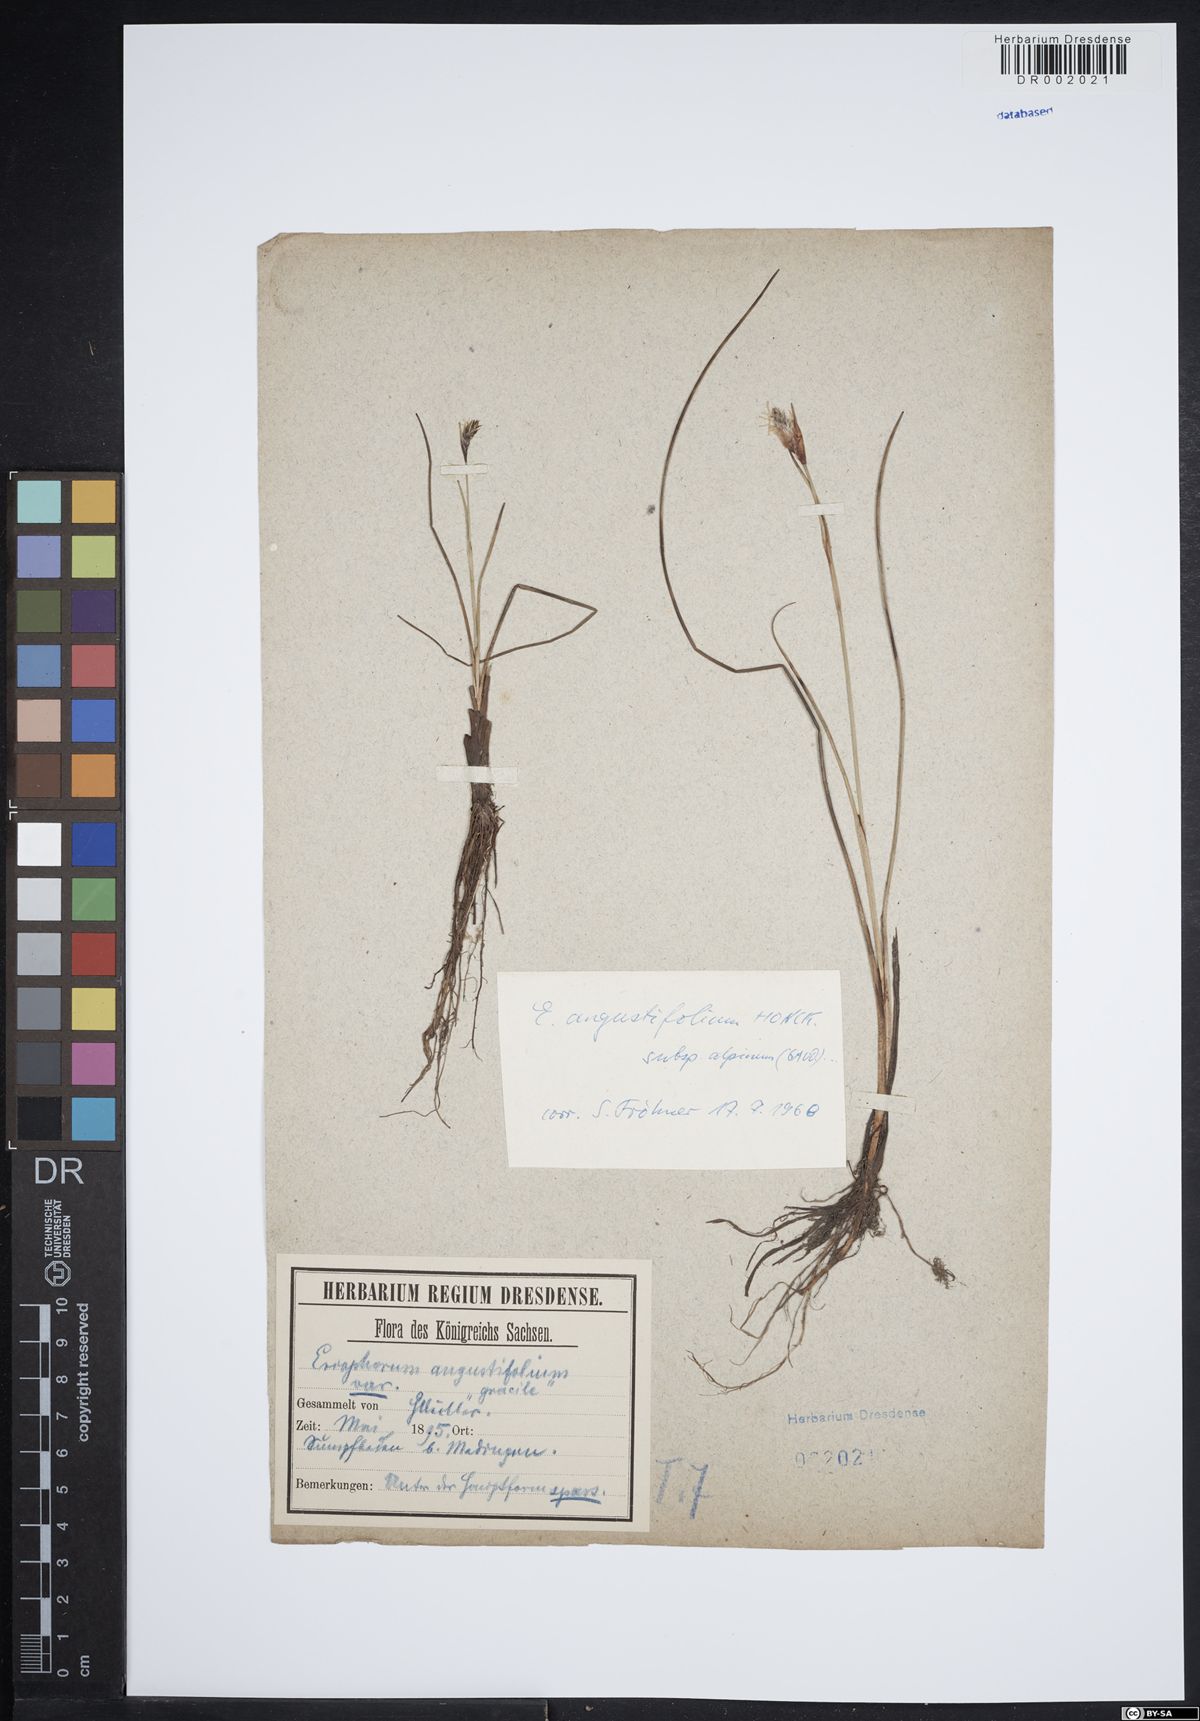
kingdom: Plantae
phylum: Tracheophyta
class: Liliopsida
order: Poales
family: Cyperaceae
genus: Eriophorum
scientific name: Eriophorum gracile
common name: Slender cottongrass
